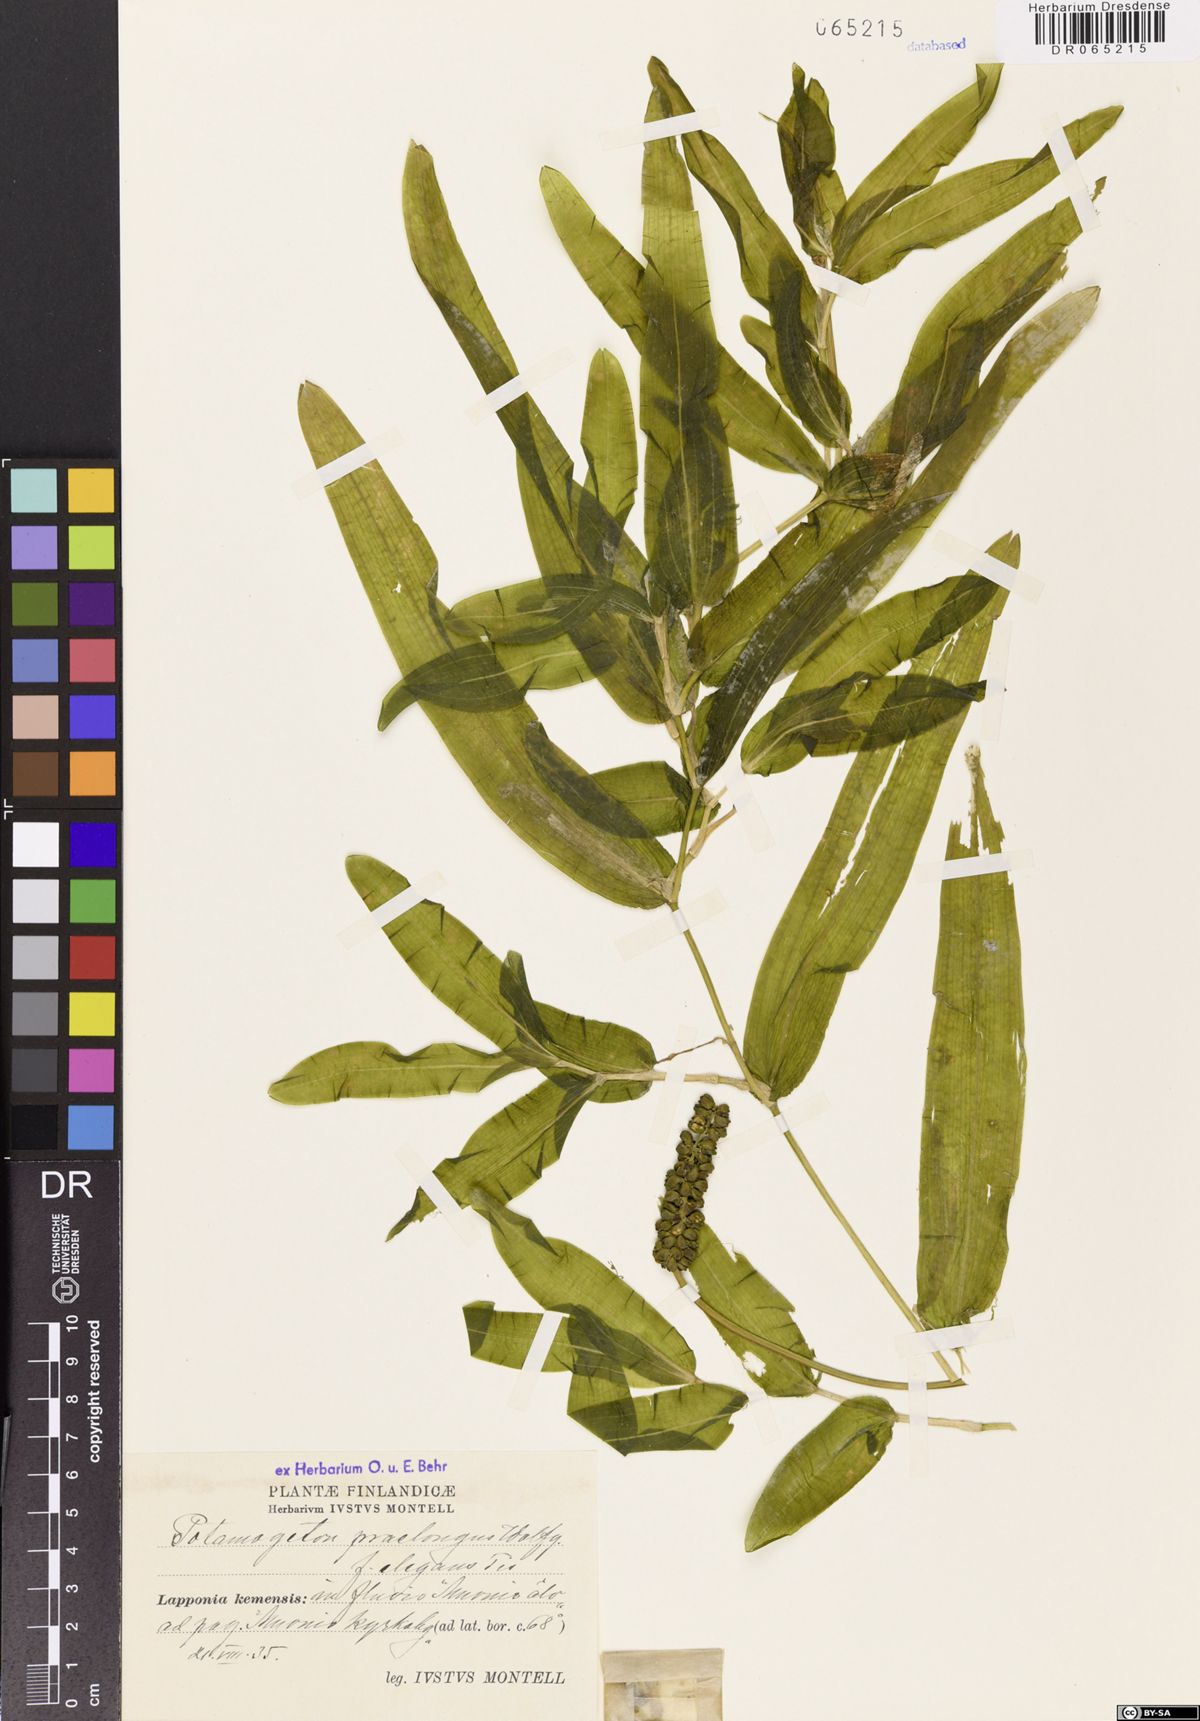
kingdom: Plantae
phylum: Tracheophyta
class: Liliopsida
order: Alismatales
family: Potamogetonaceae
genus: Potamogeton
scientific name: Potamogeton praelongus
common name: Long-stalked pondweed
